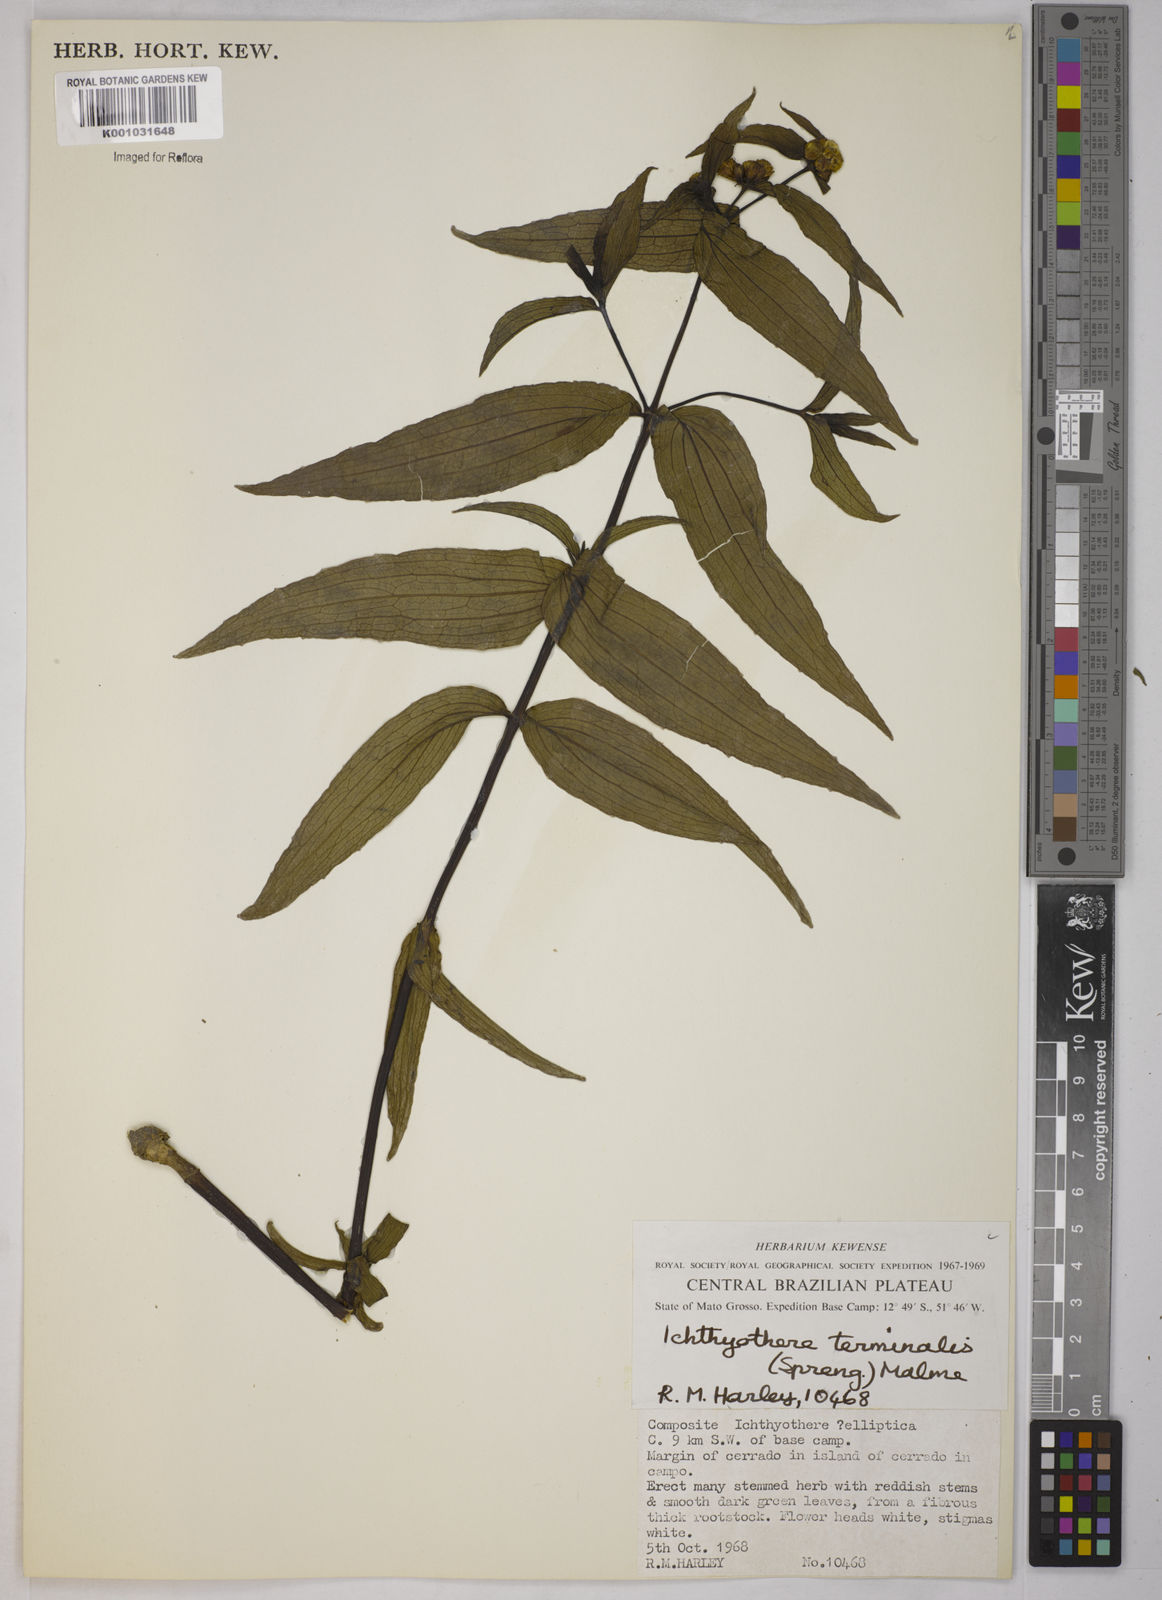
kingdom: Plantae
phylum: Tracheophyta
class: Magnoliopsida
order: Asterales
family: Asteraceae
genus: Ichthyothere
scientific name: Ichthyothere terminalis
